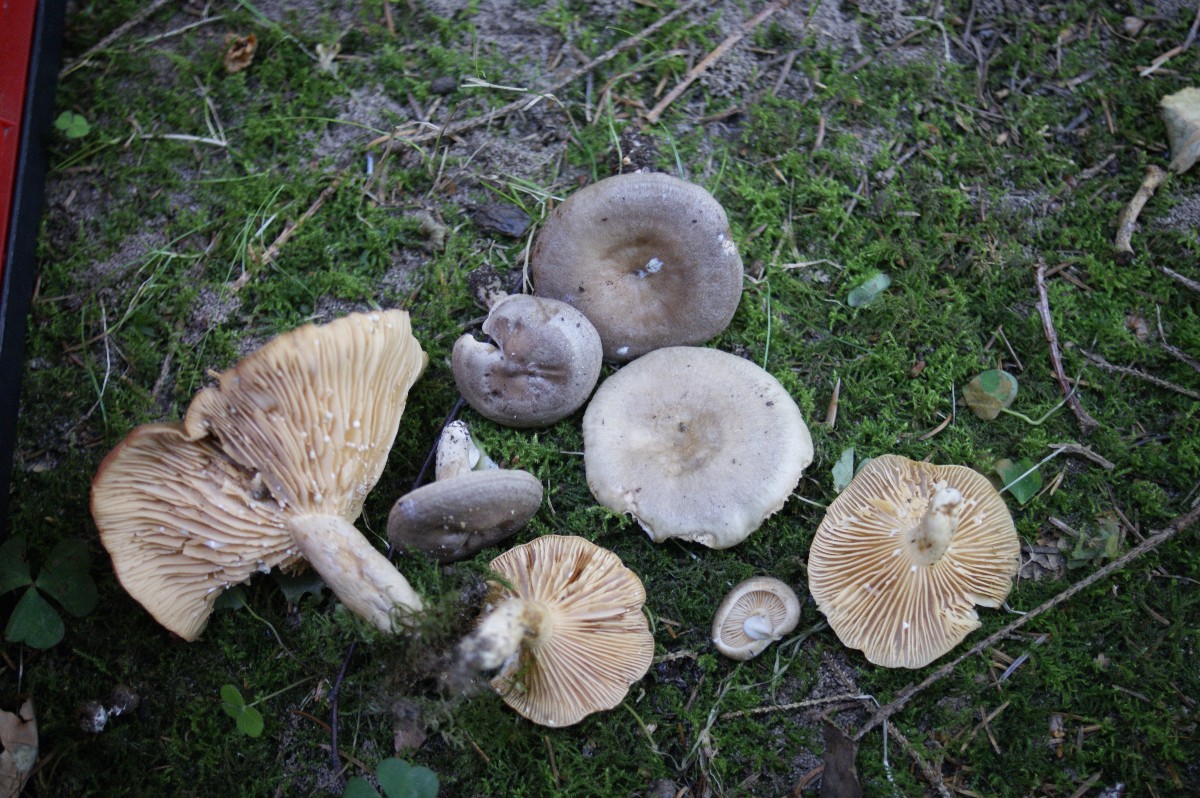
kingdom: Fungi
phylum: Basidiomycota
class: Agaricomycetes
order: Russulales
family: Russulaceae
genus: Lactarius
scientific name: Lactarius pyrogalus
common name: hassel-mælkehat
